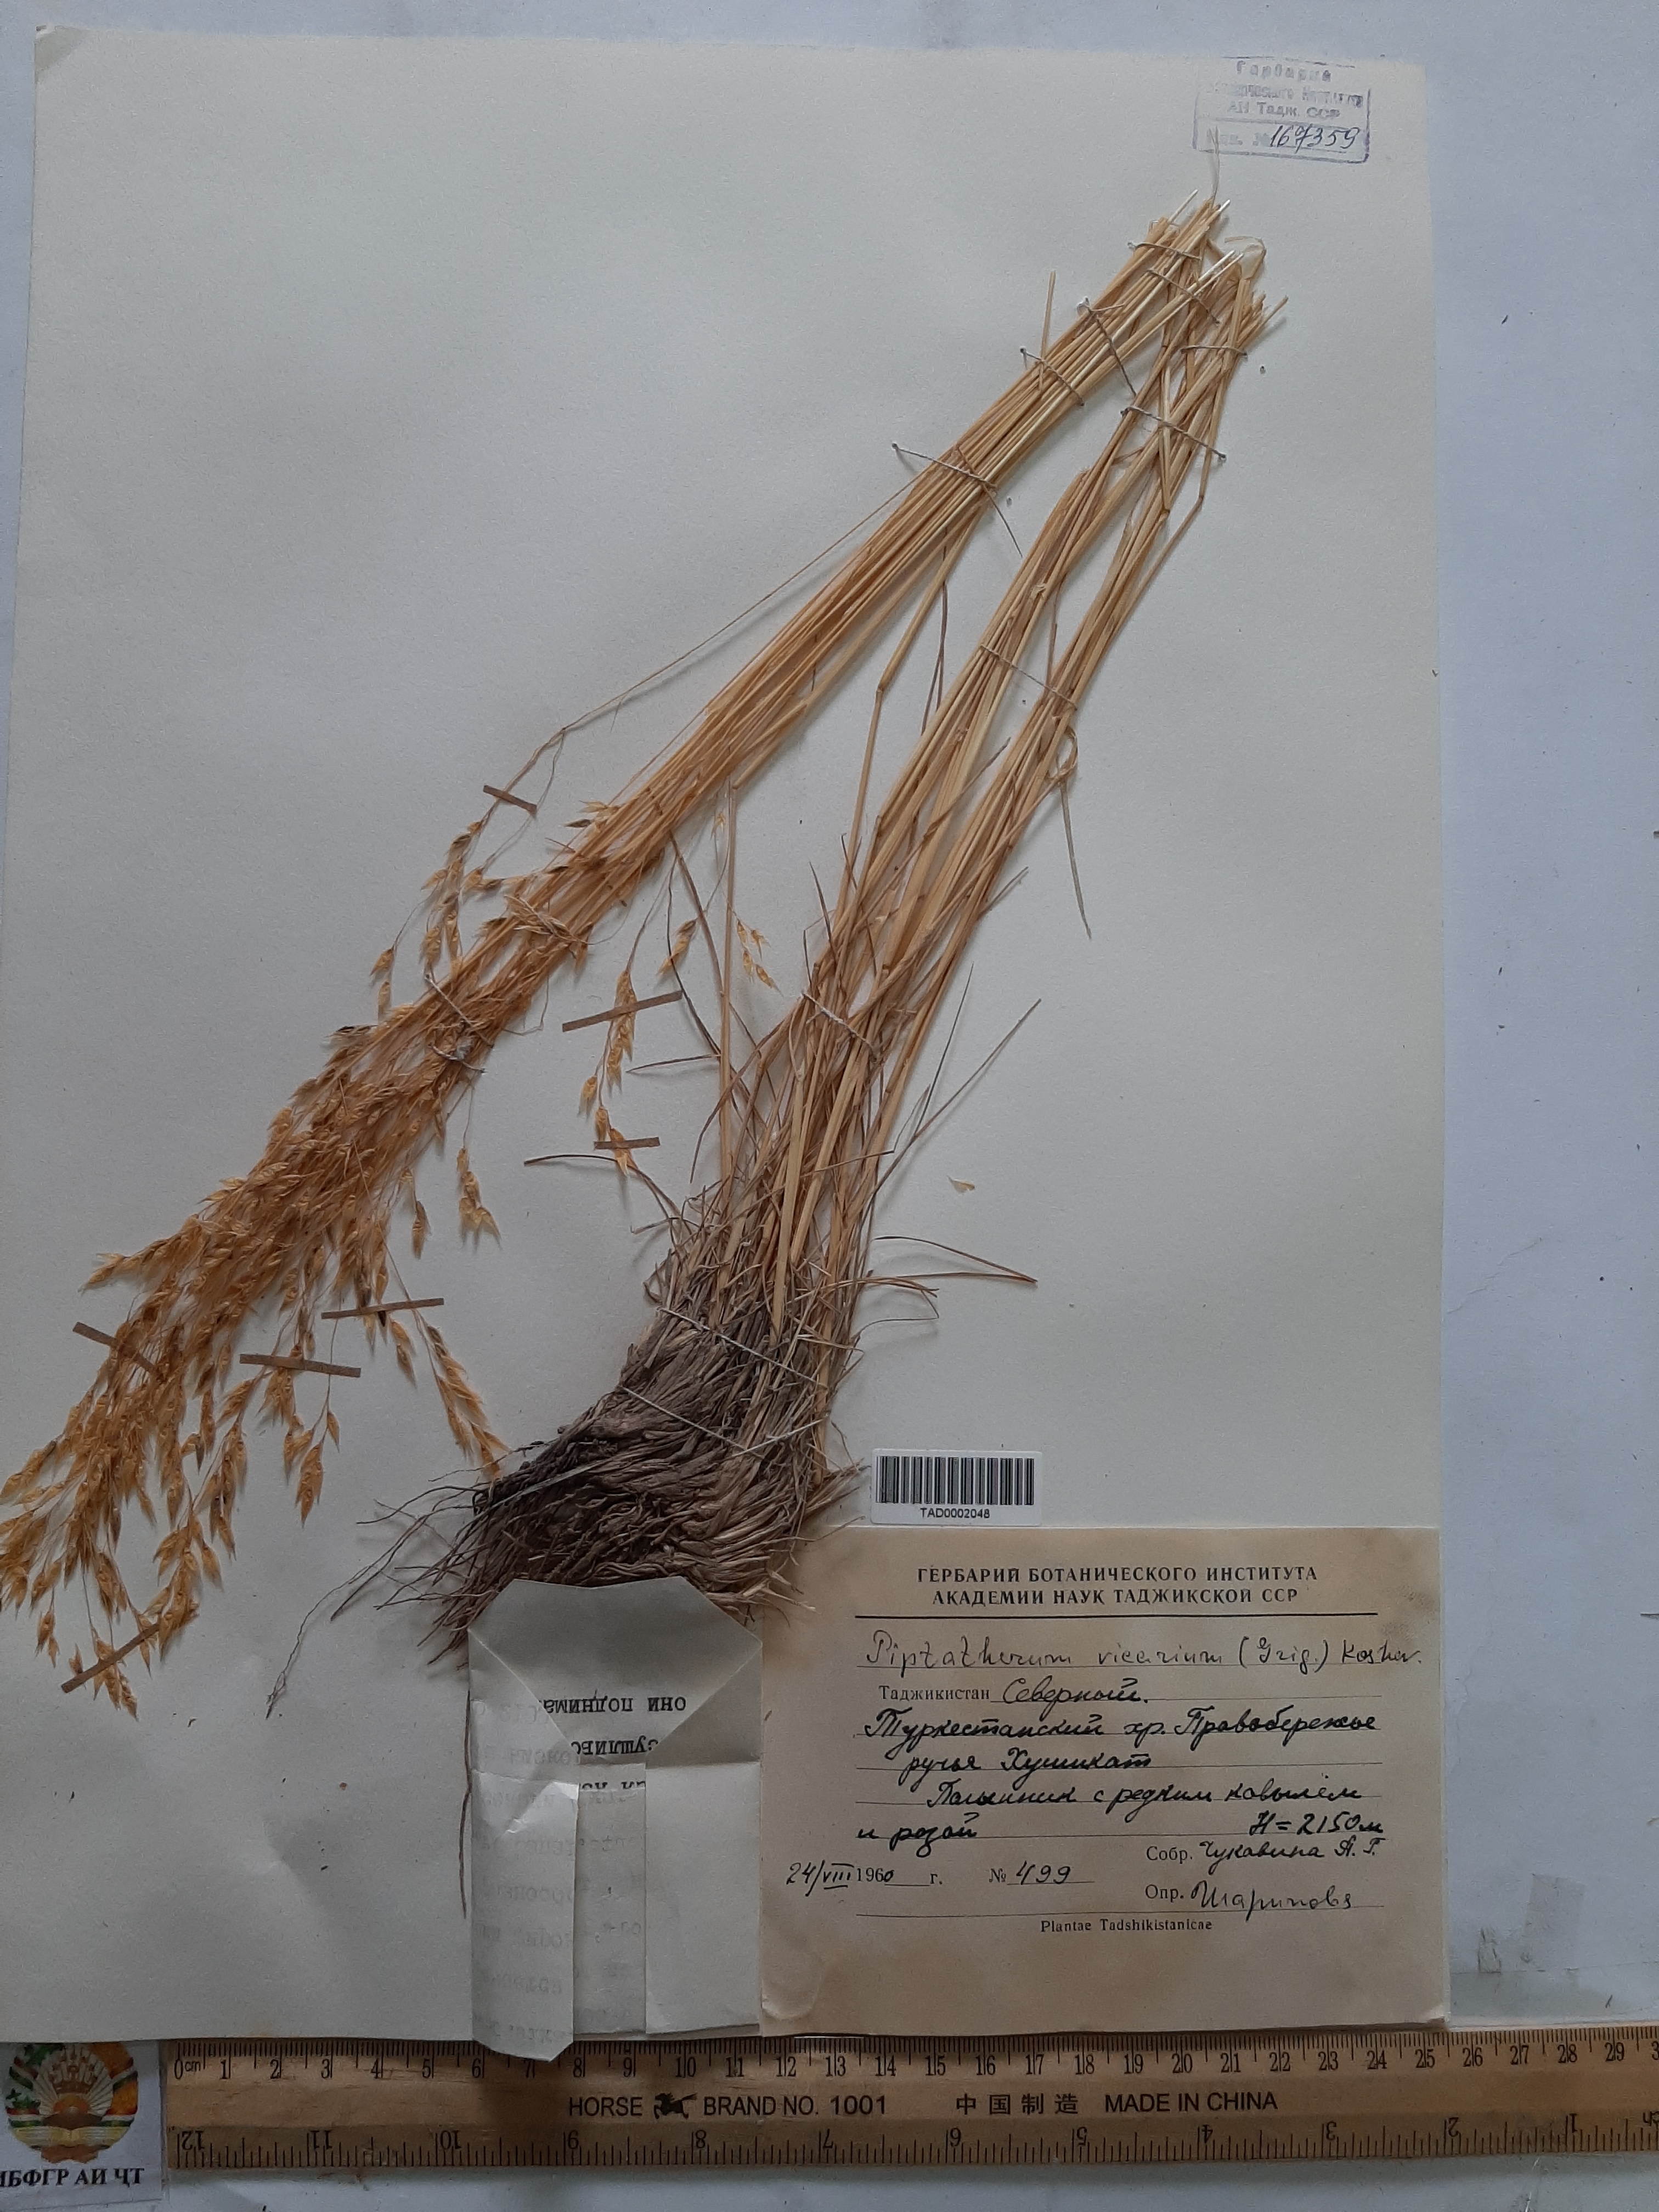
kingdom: Plantae
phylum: Tracheophyta
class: Liliopsida
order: Poales
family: Poaceae
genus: Piptatherum
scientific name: Piptatherum sogdianum
